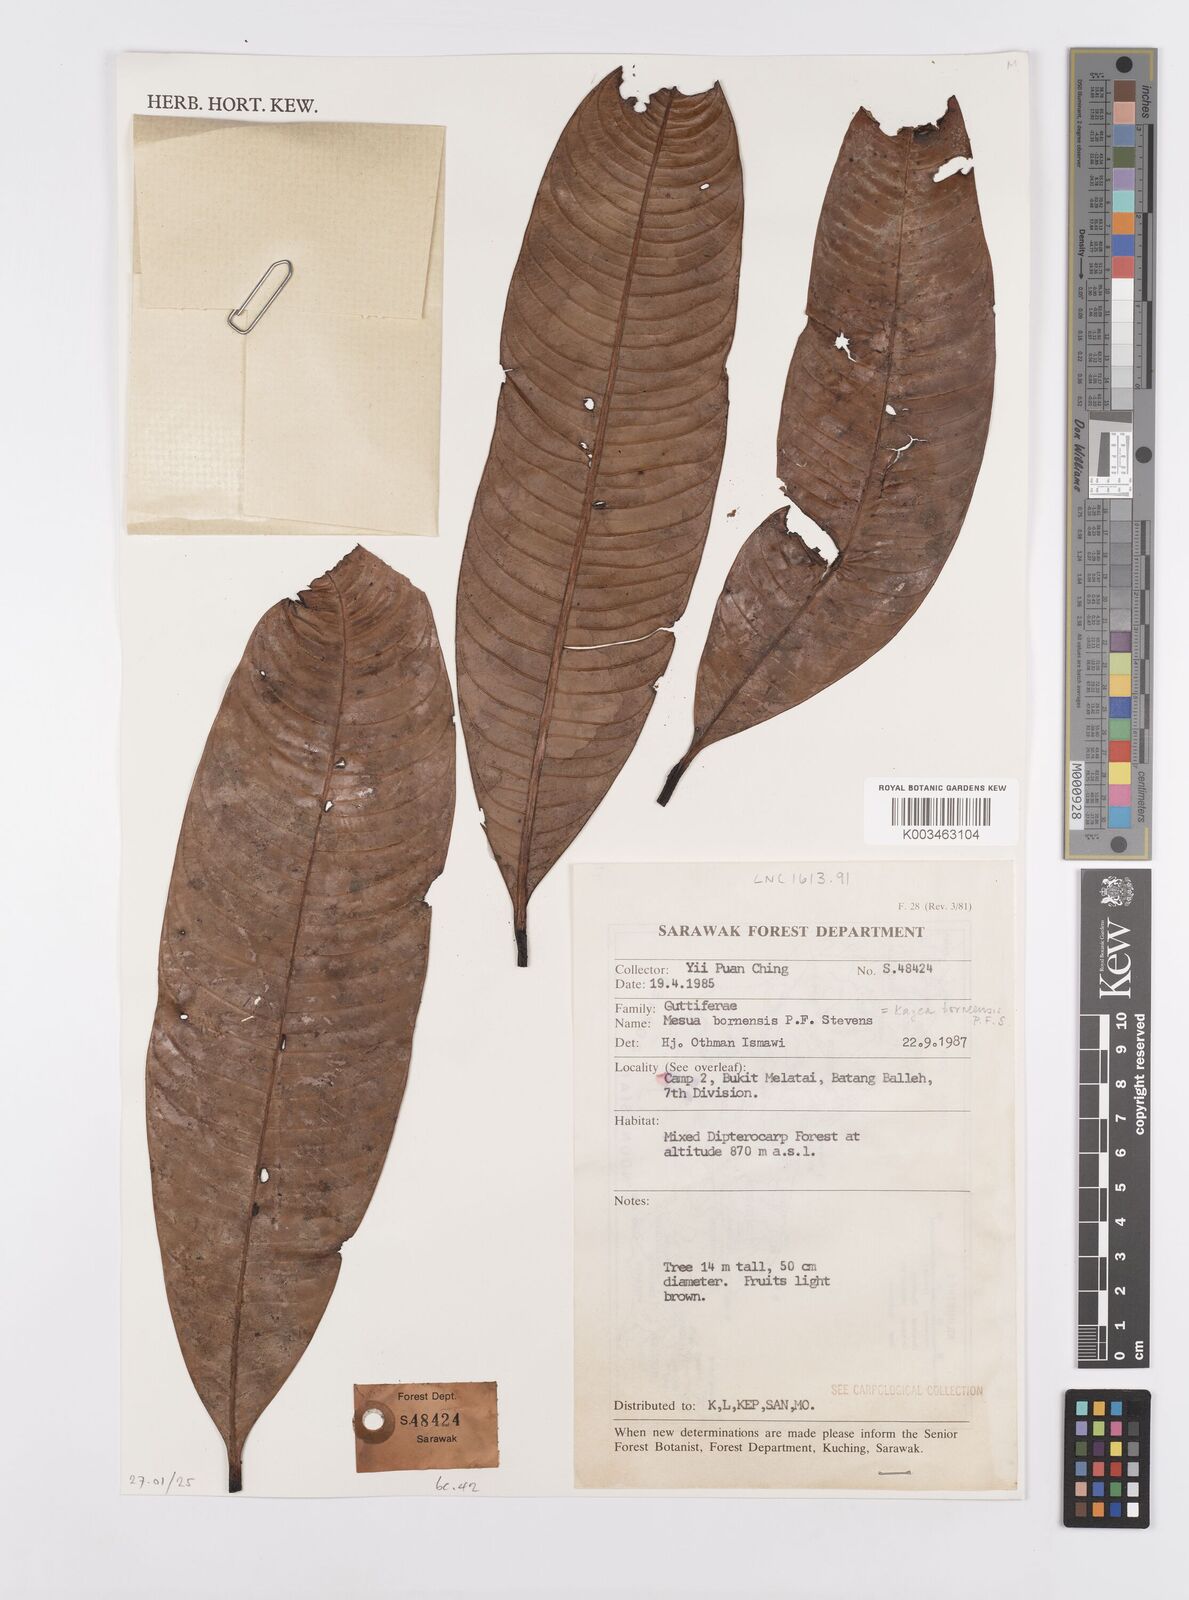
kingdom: Plantae
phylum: Tracheophyta
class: Magnoliopsida
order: Malpighiales
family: Calophyllaceae
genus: Kayea
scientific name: Kayea borneensis
